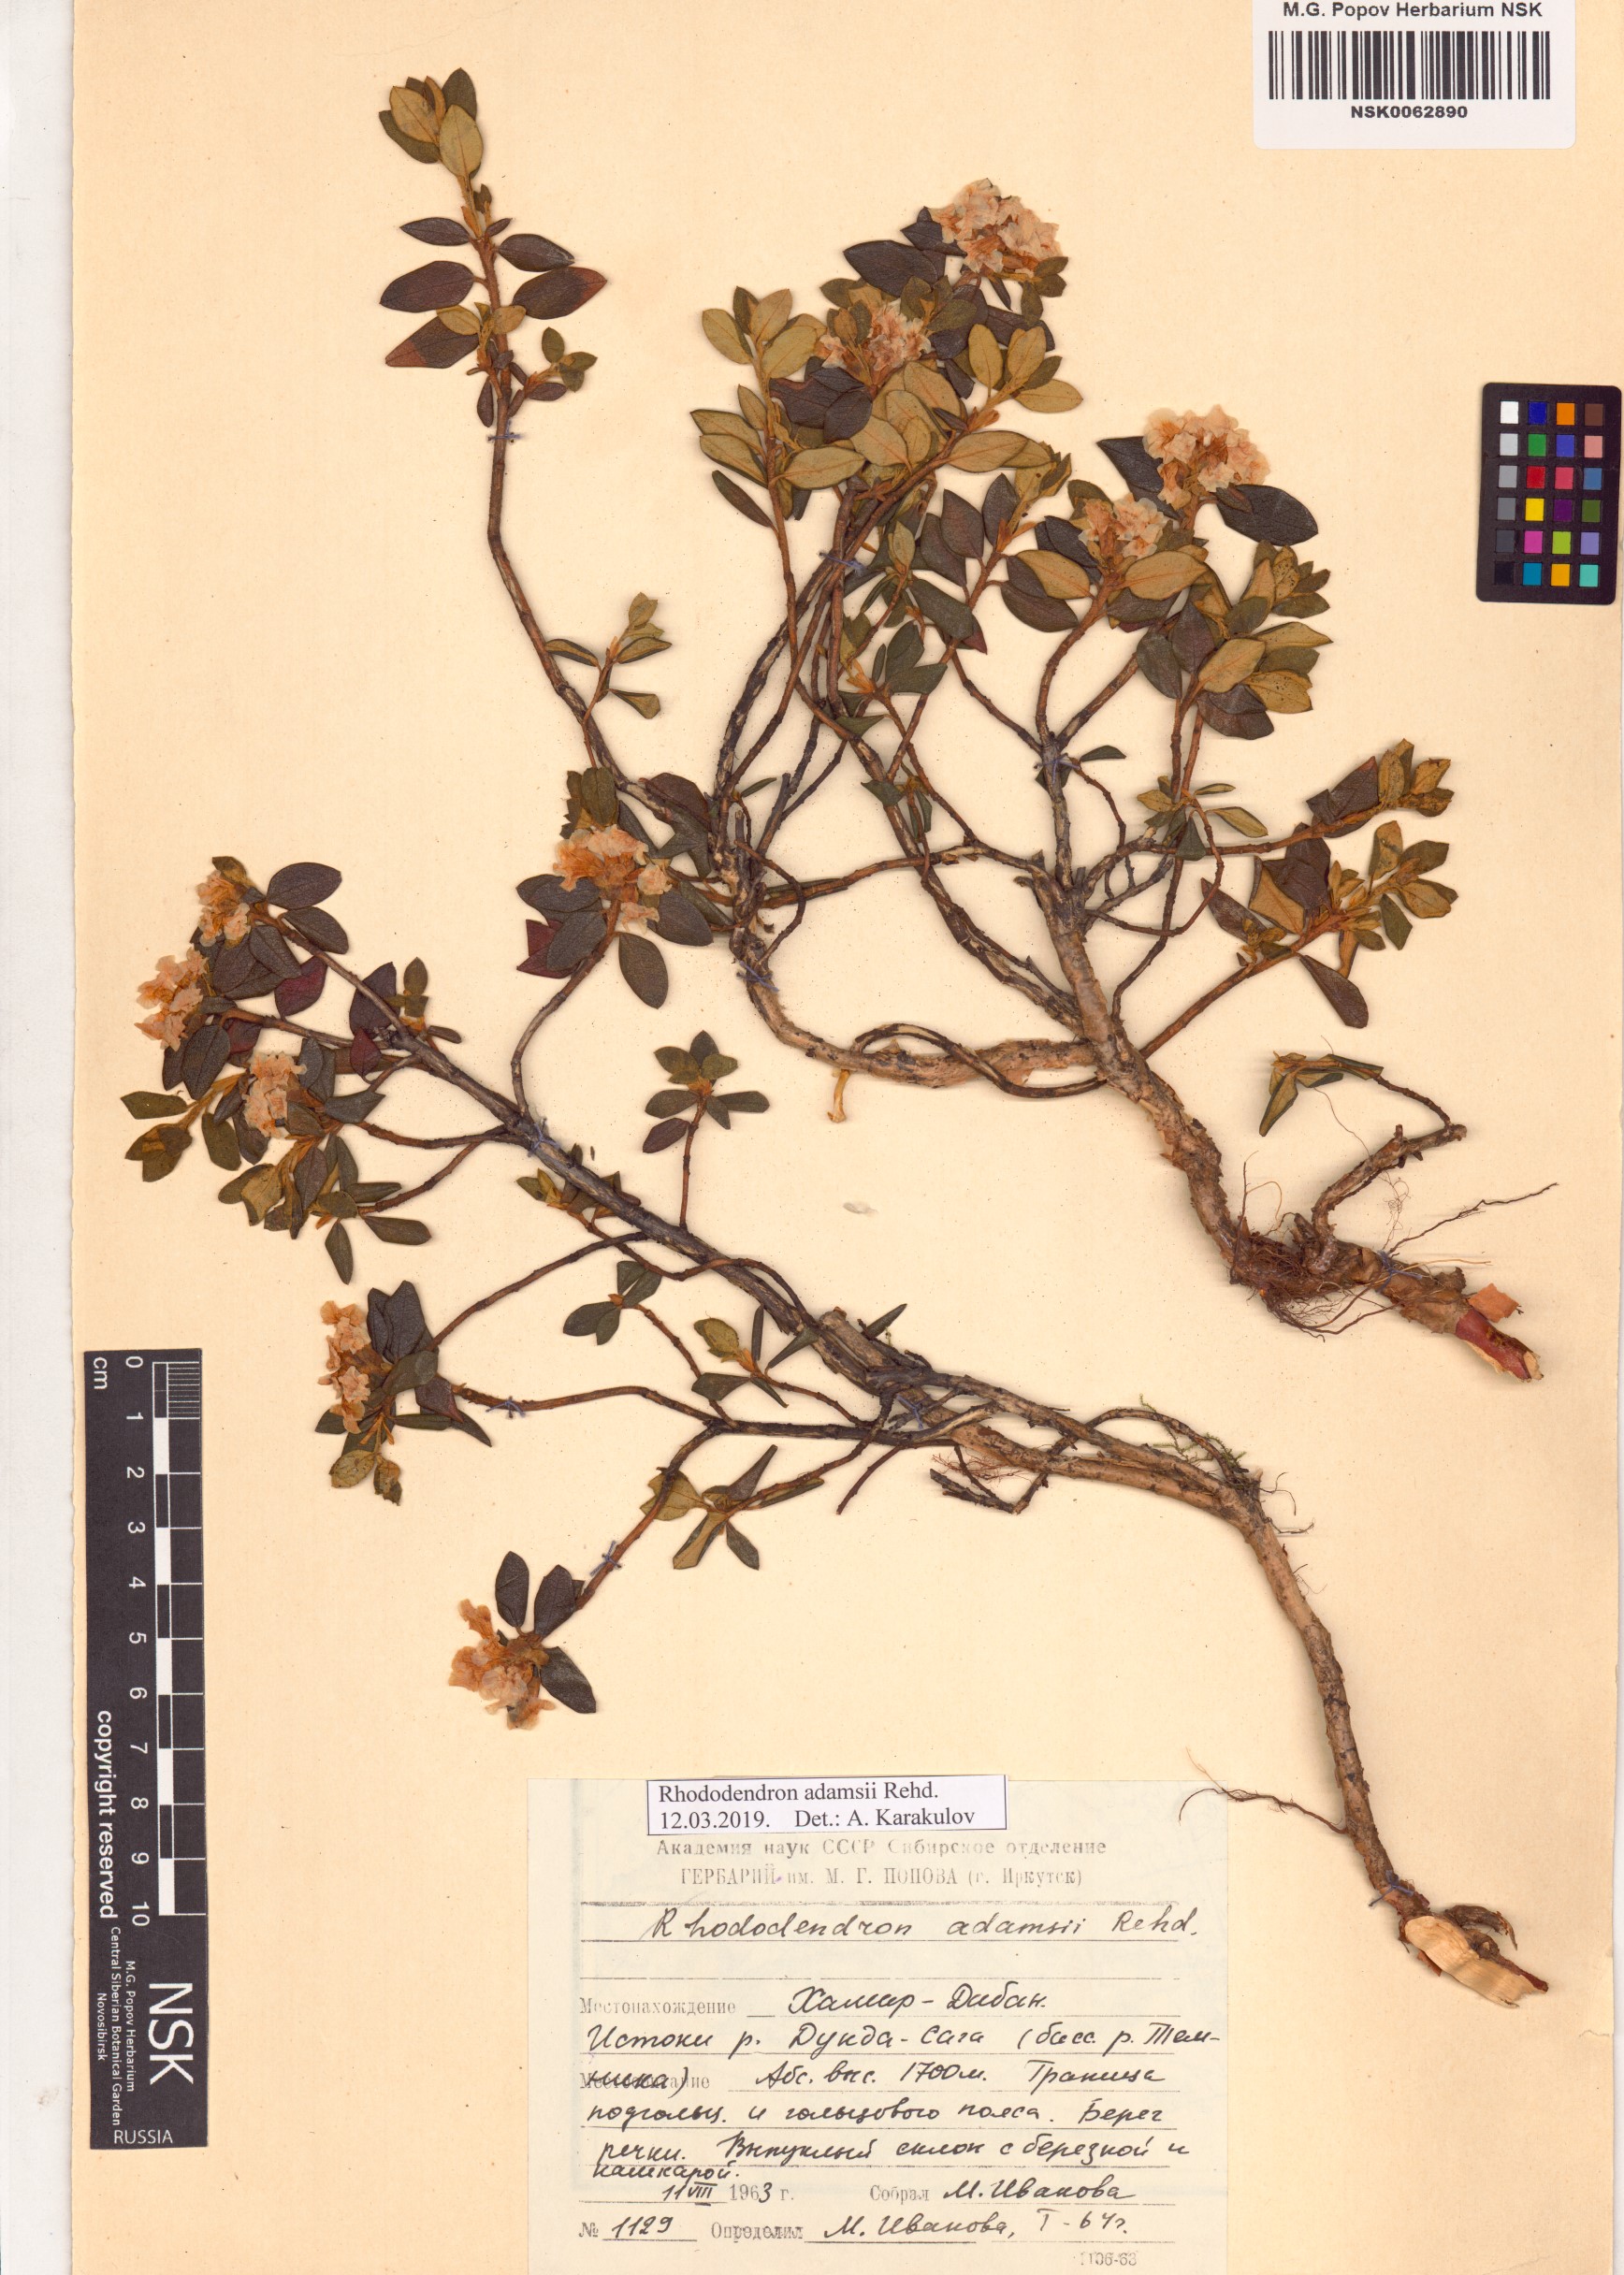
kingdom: Plantae
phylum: Tracheophyta
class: Magnoliopsida
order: Ericales
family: Ericaceae
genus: Rhododendron
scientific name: Rhododendron adamsii
